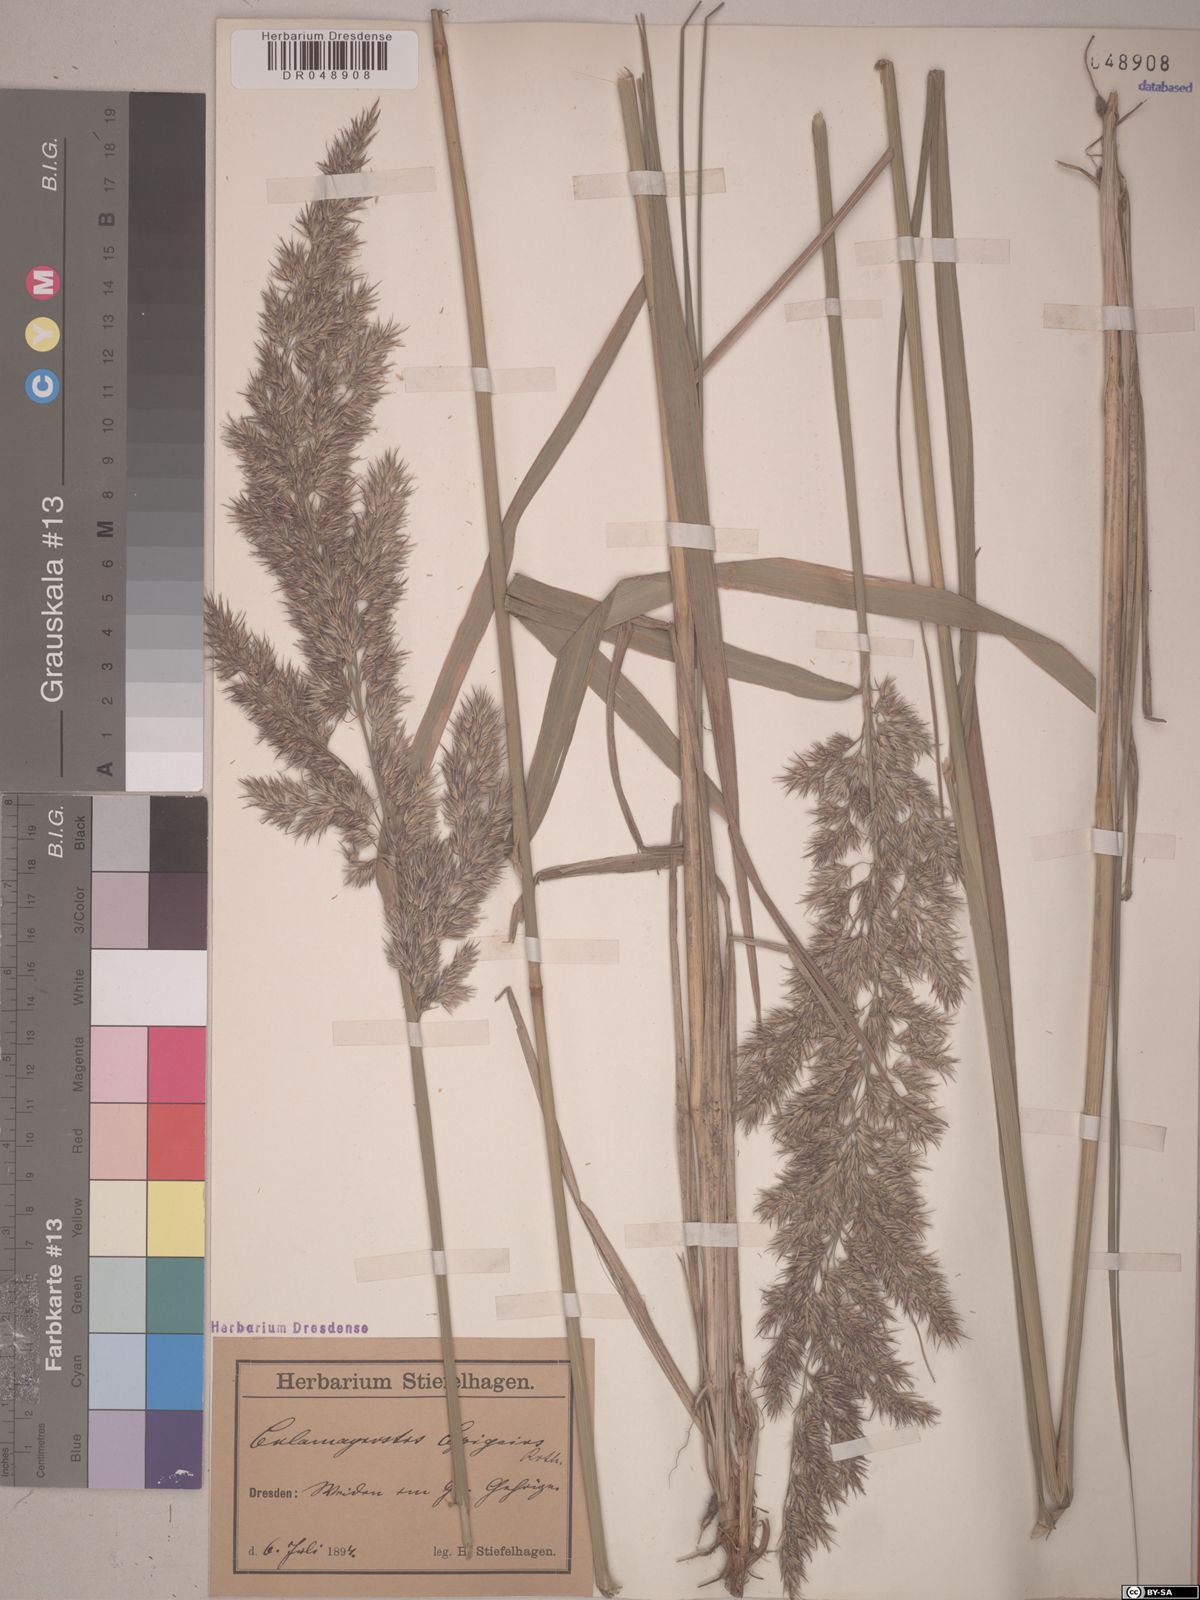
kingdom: Plantae
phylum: Tracheophyta
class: Liliopsida
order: Poales
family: Poaceae
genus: Calamagrostis
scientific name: Calamagrostis epigejos
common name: Wood small-reed
